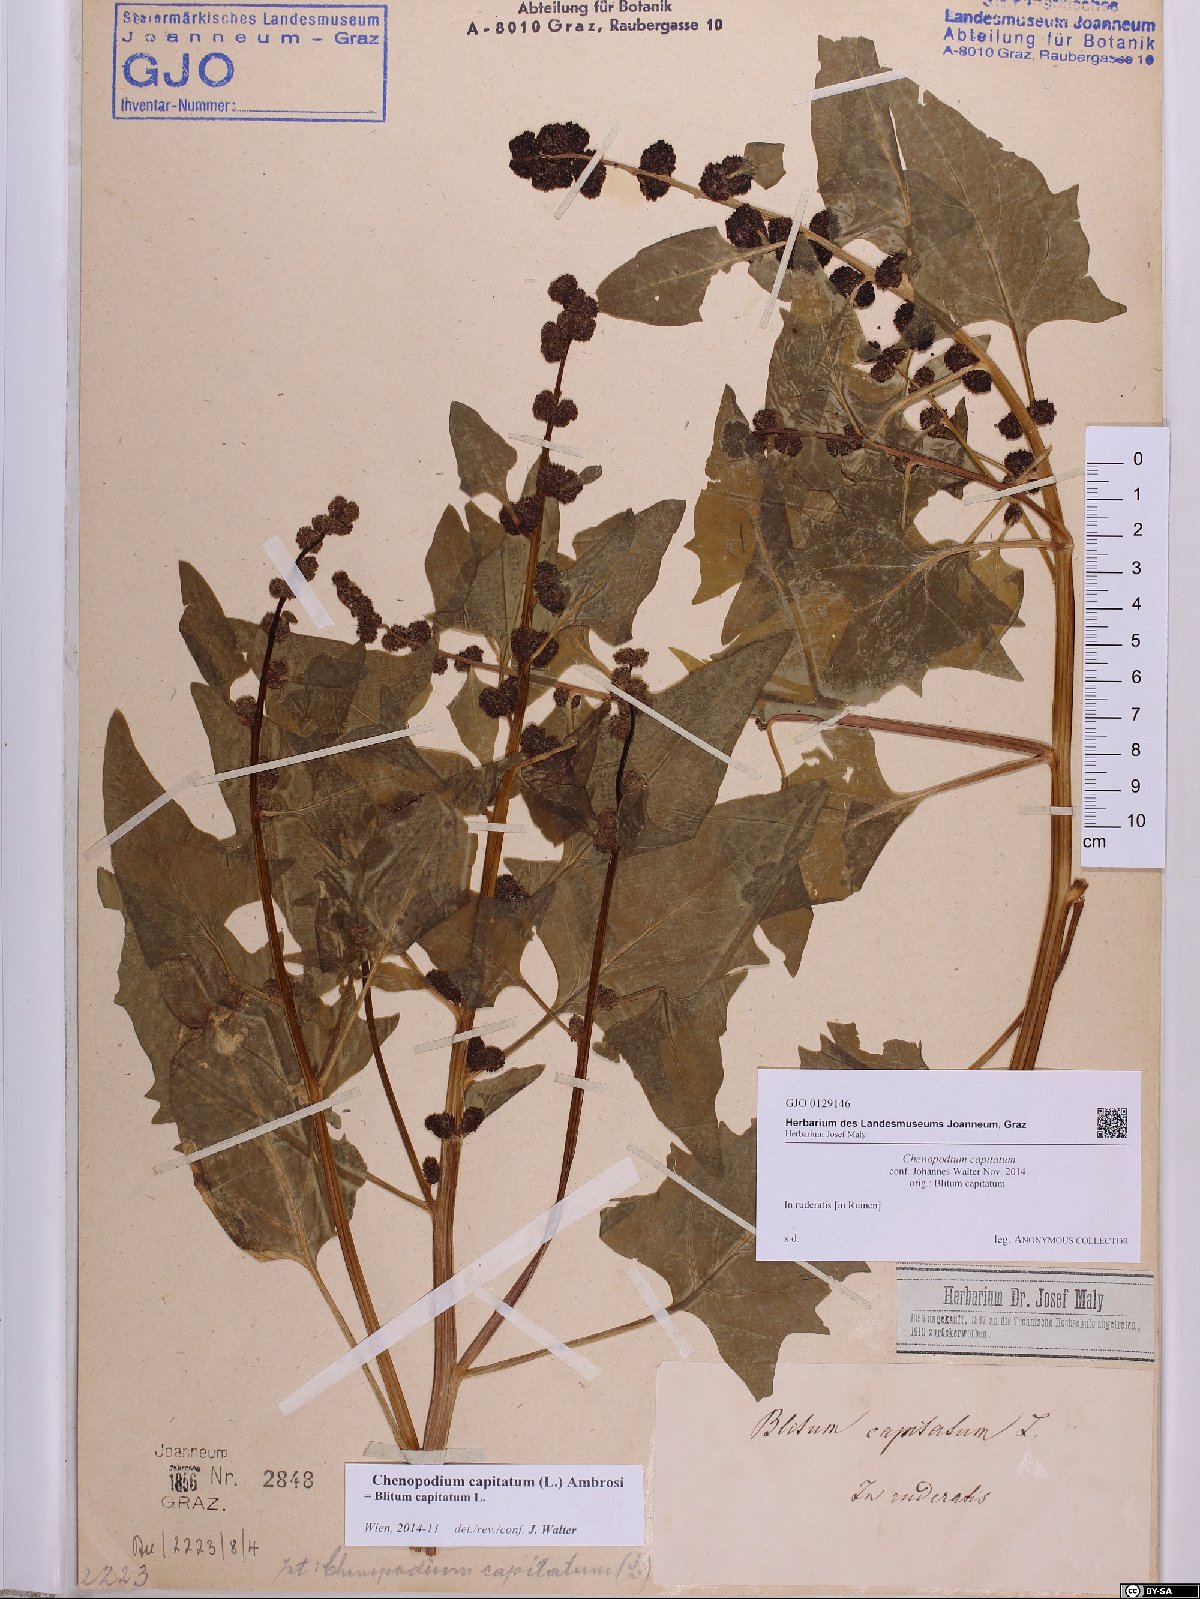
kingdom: Plantae
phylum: Tracheophyta
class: Magnoliopsida
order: Caryophyllales
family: Amaranthaceae
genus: Blitum
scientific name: Blitum capitatum
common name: Strawberry-blight
